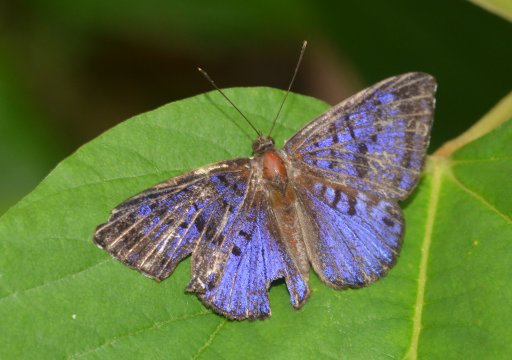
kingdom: Animalia
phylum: Arthropoda
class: Insecta
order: Lepidoptera
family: Riodinidae
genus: Hypophylla
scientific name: Hypophylla
